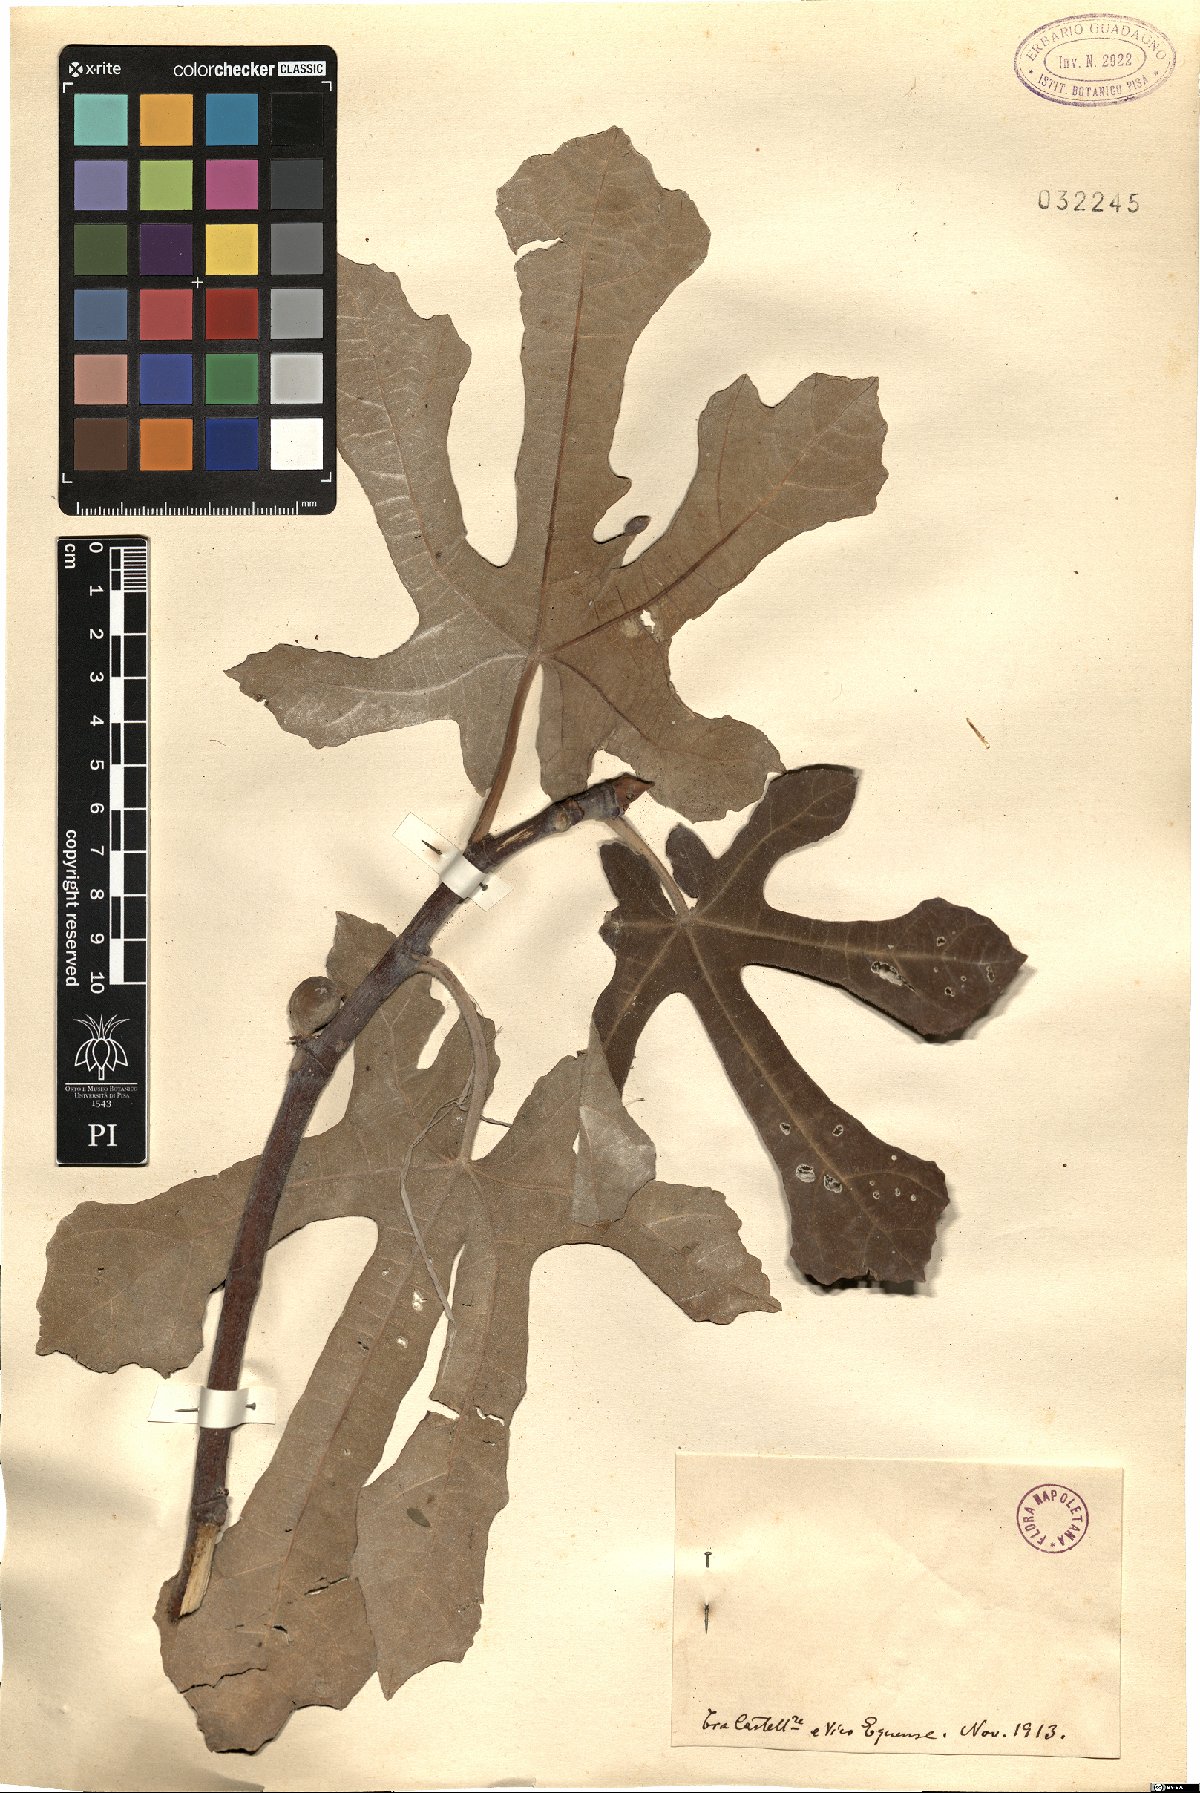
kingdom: Plantae
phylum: Tracheophyta
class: Magnoliopsida
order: Rosales
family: Moraceae
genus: Ficus
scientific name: Ficus carica
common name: Fig
